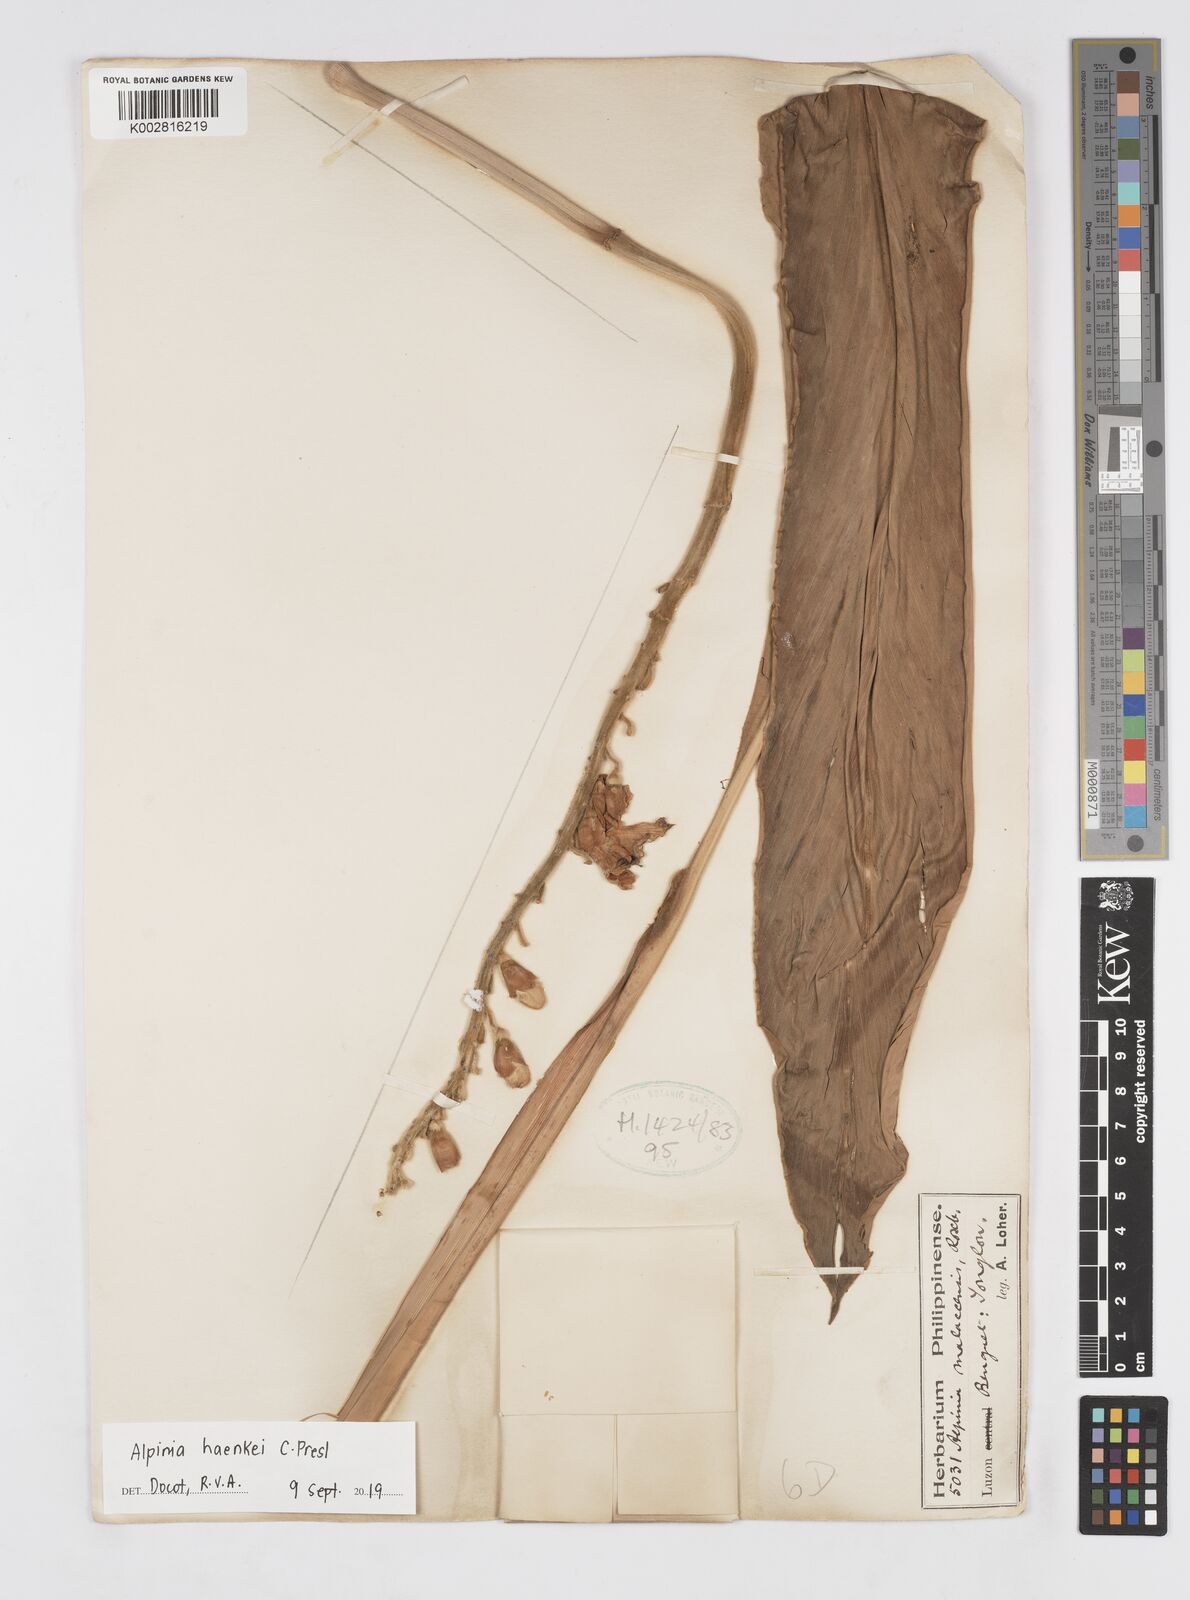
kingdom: Plantae
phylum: Tracheophyta
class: Liliopsida
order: Zingiberales
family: Zingiberaceae
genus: Alpinia
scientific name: Alpinia haenkei
